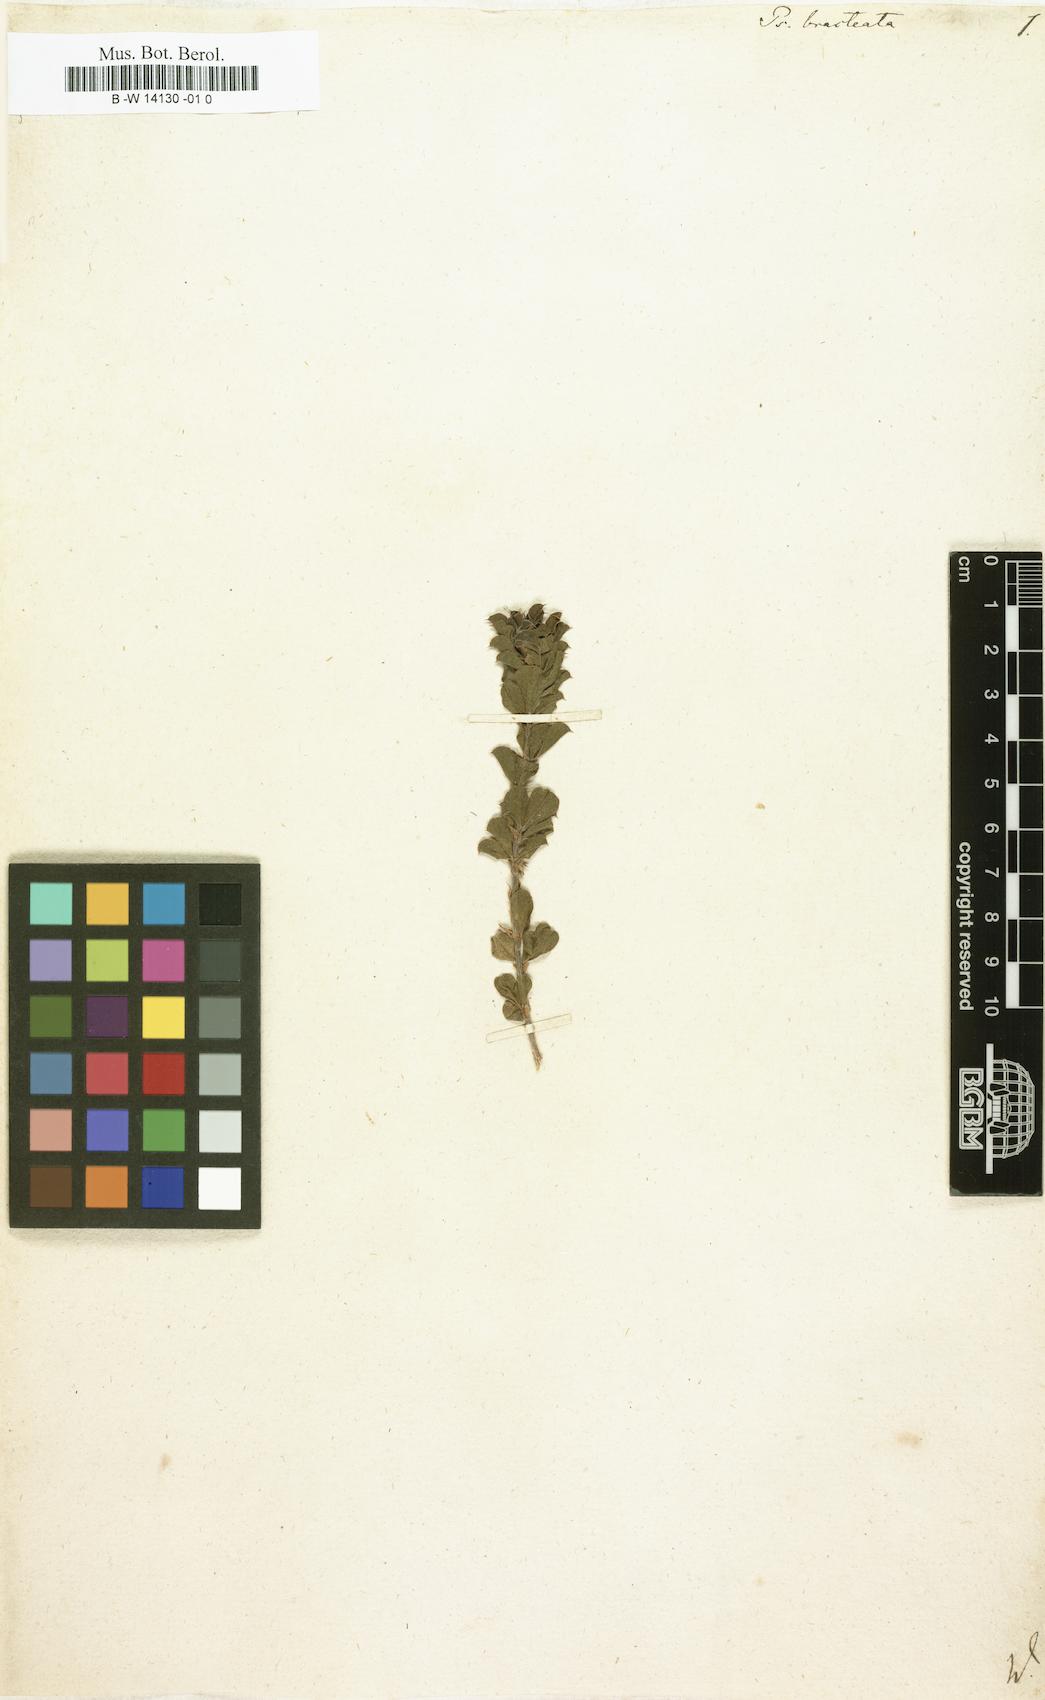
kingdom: Plantae
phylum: Tracheophyta
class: Magnoliopsida
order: Fabales
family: Fabaceae
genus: Psoralea
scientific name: Psoralea fruticans
